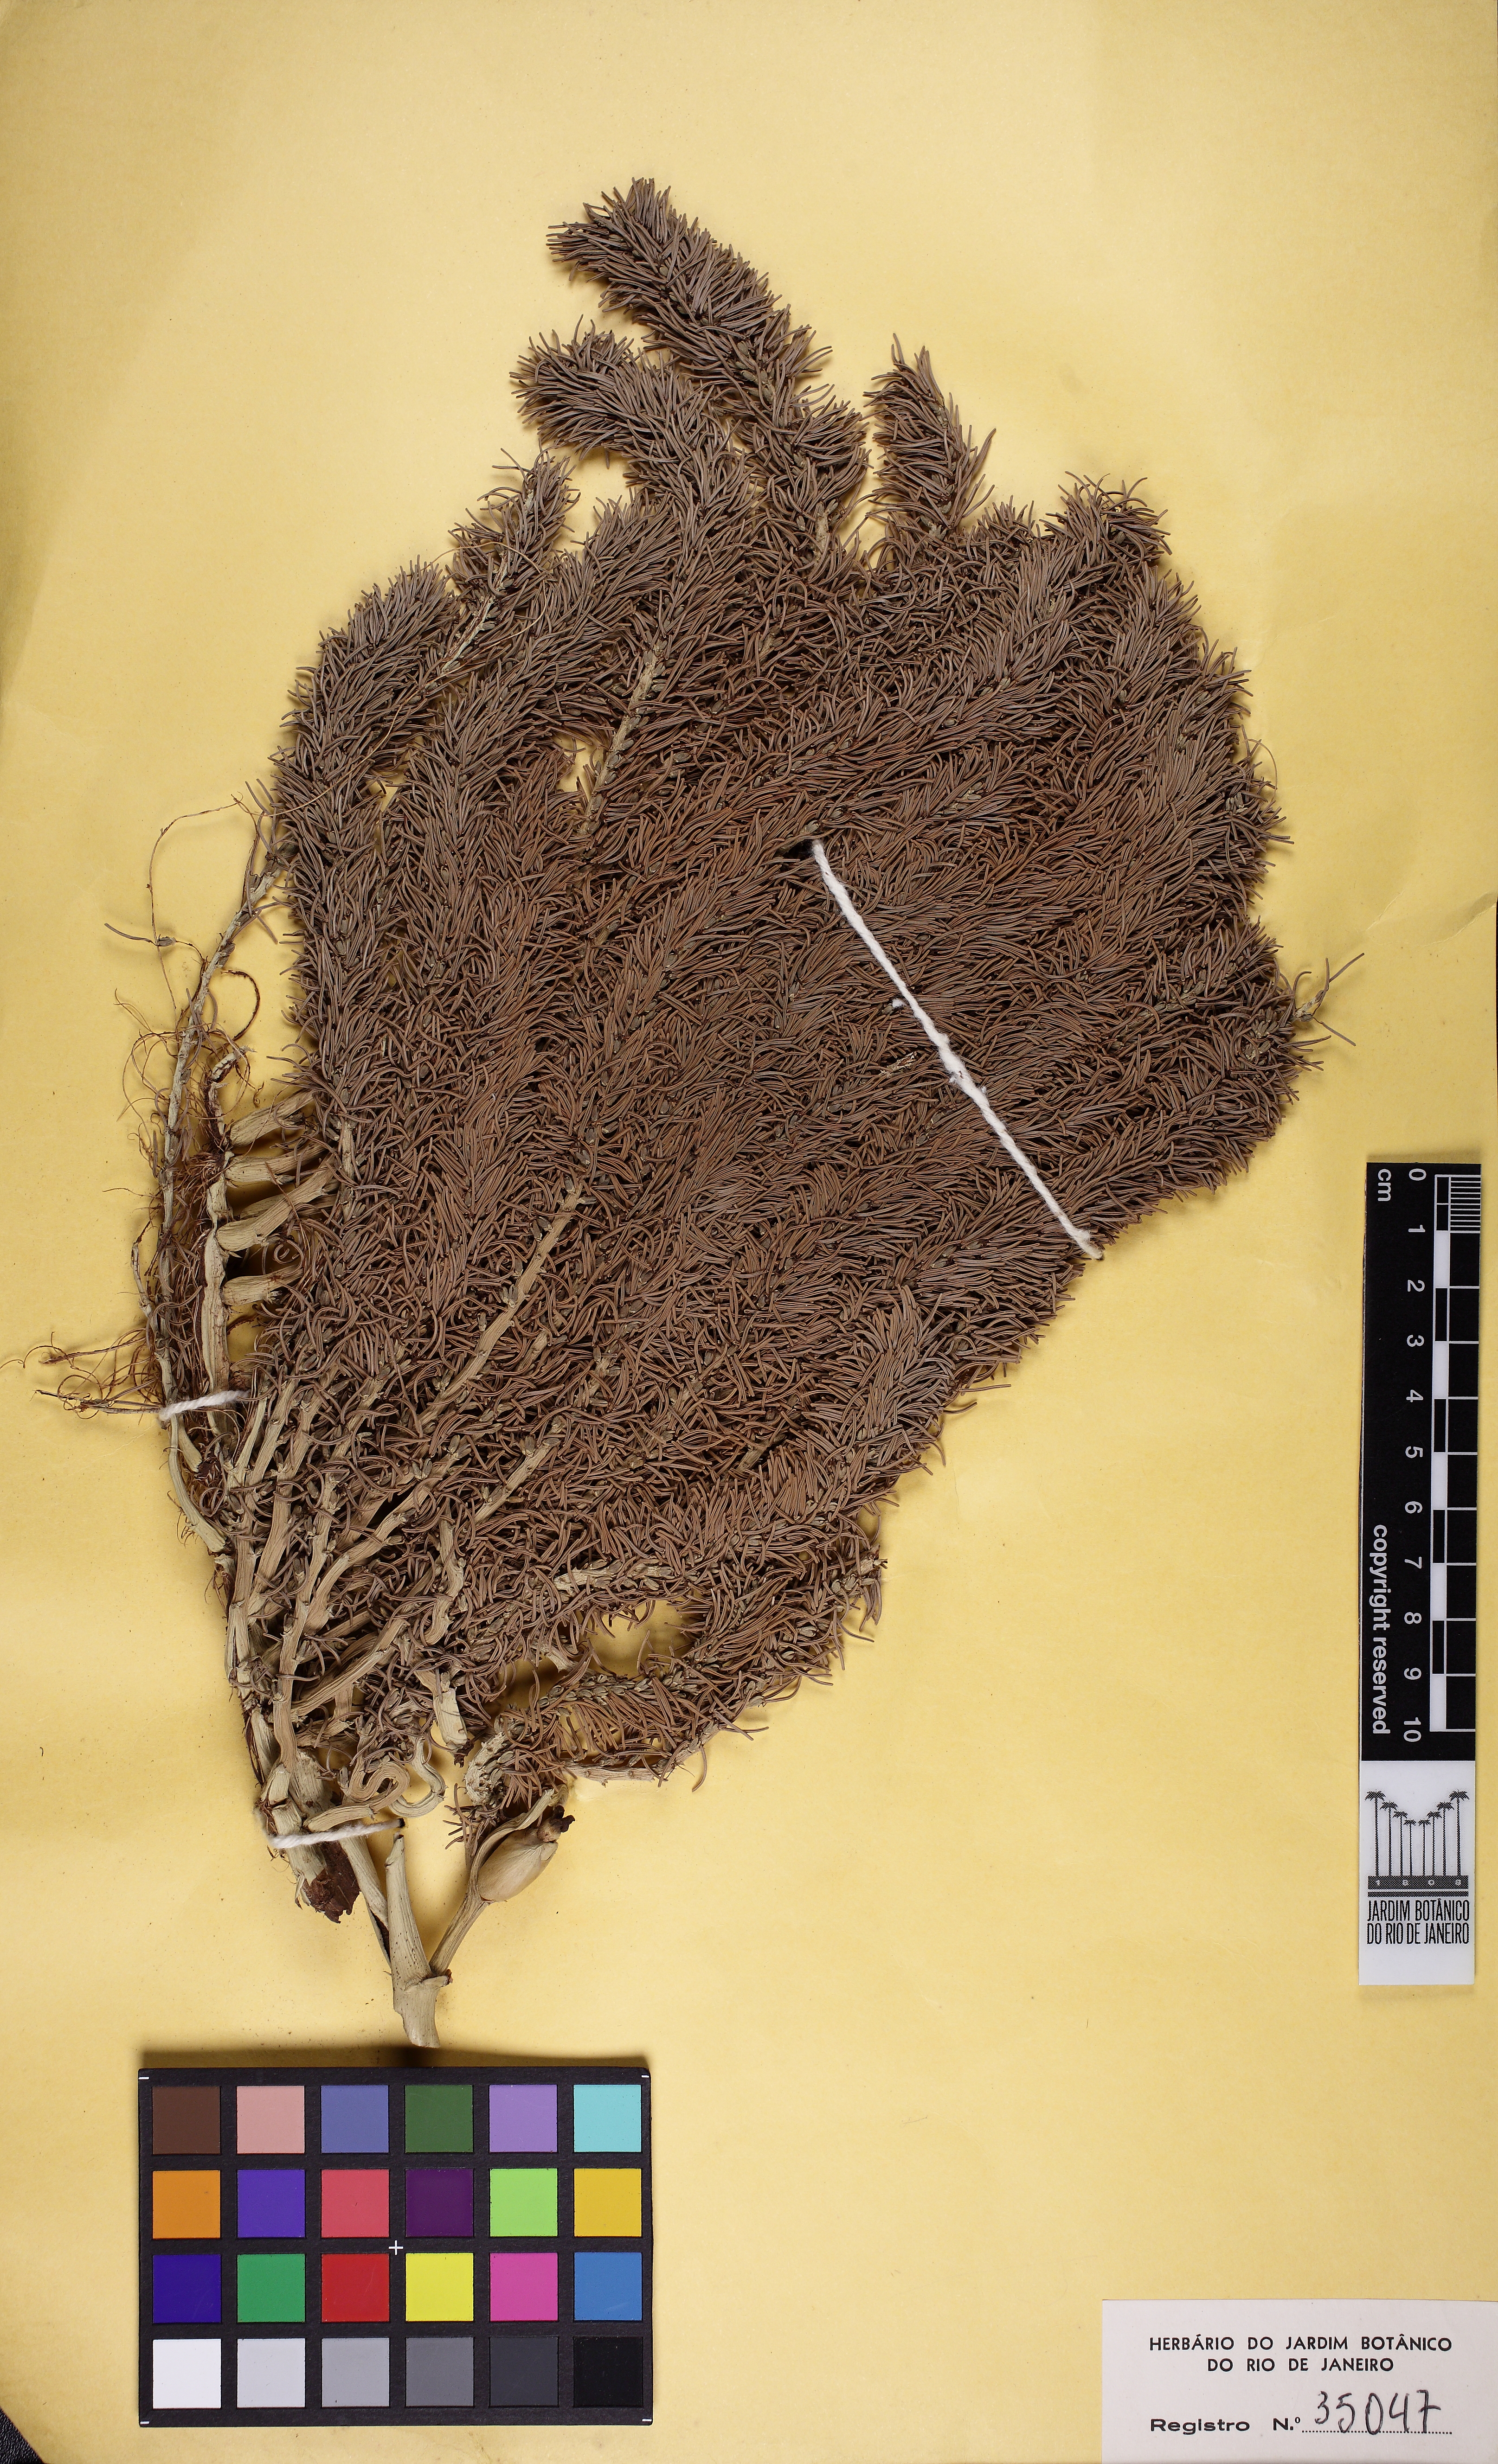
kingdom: Plantae
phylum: Tracheophyta
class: Liliopsida
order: Arecales
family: Arecaceae
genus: Attalea
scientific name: Attalea maripa
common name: Maripa palm
